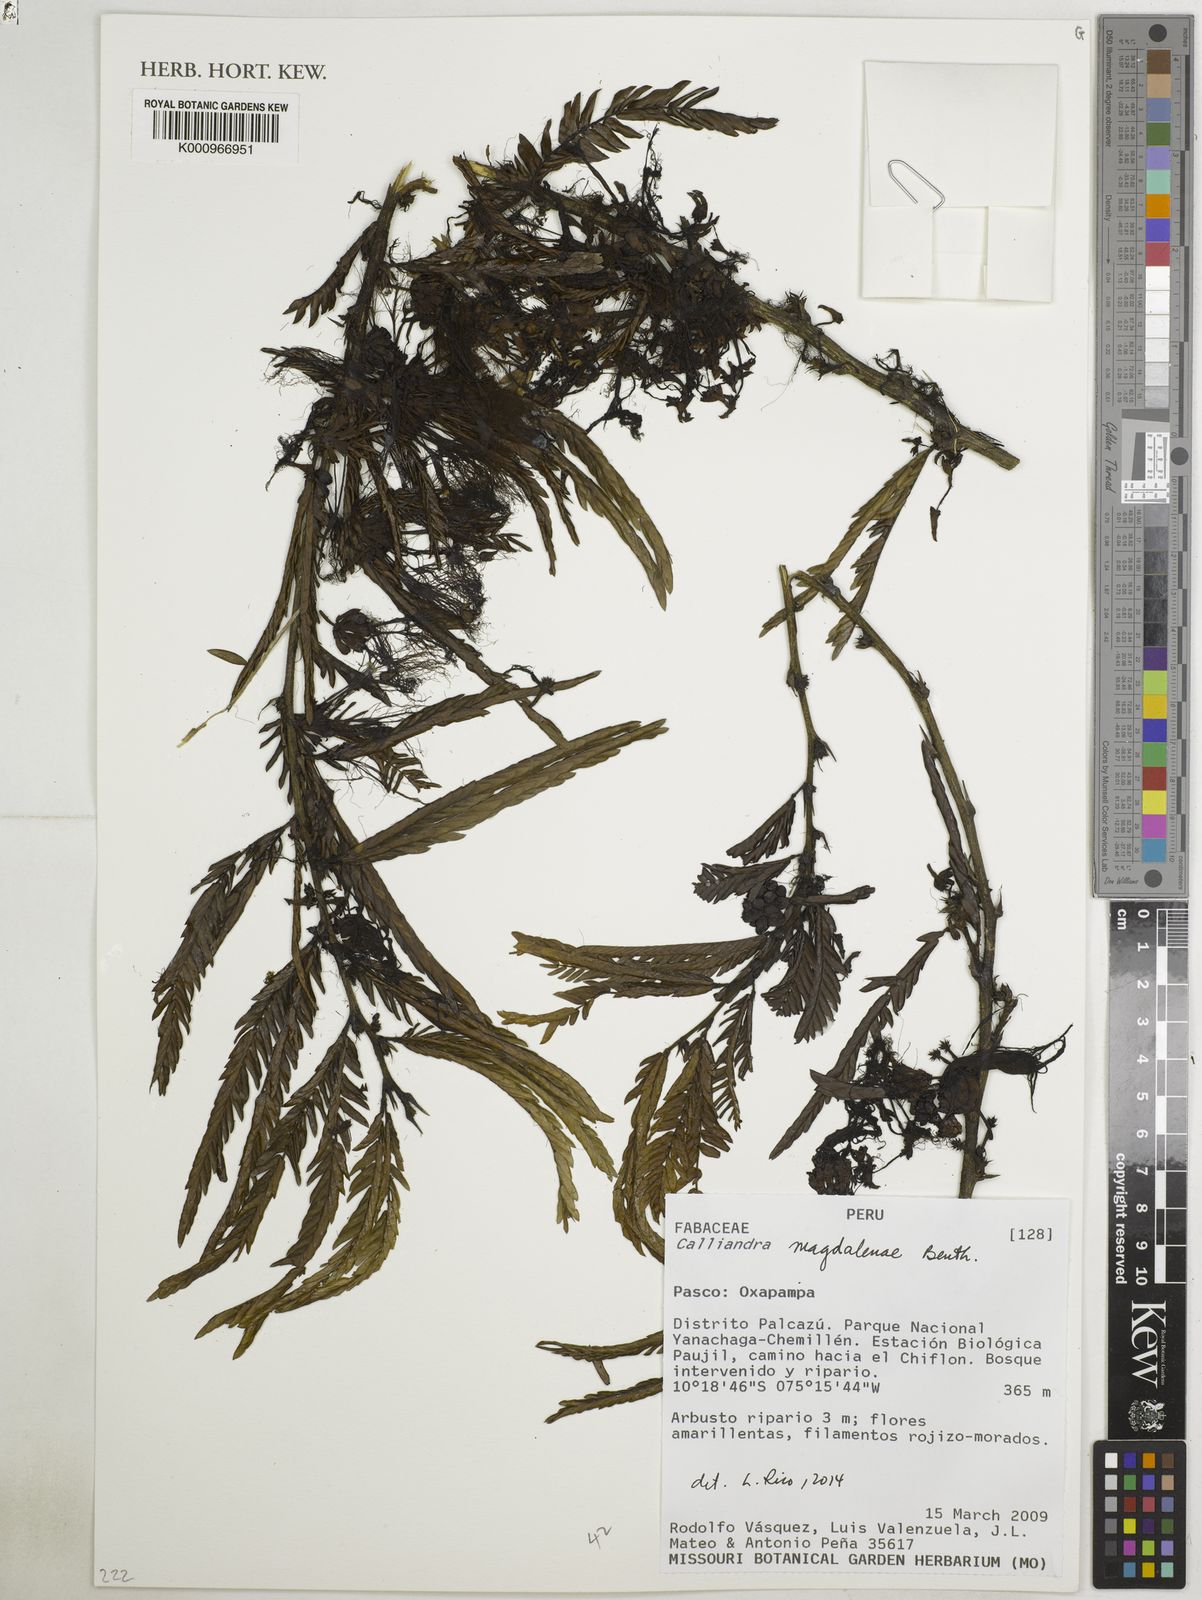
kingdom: Plantae
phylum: Tracheophyta
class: Magnoliopsida
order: Fabales
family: Fabaceae
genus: Calliandra
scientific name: Calliandra magdalenae
